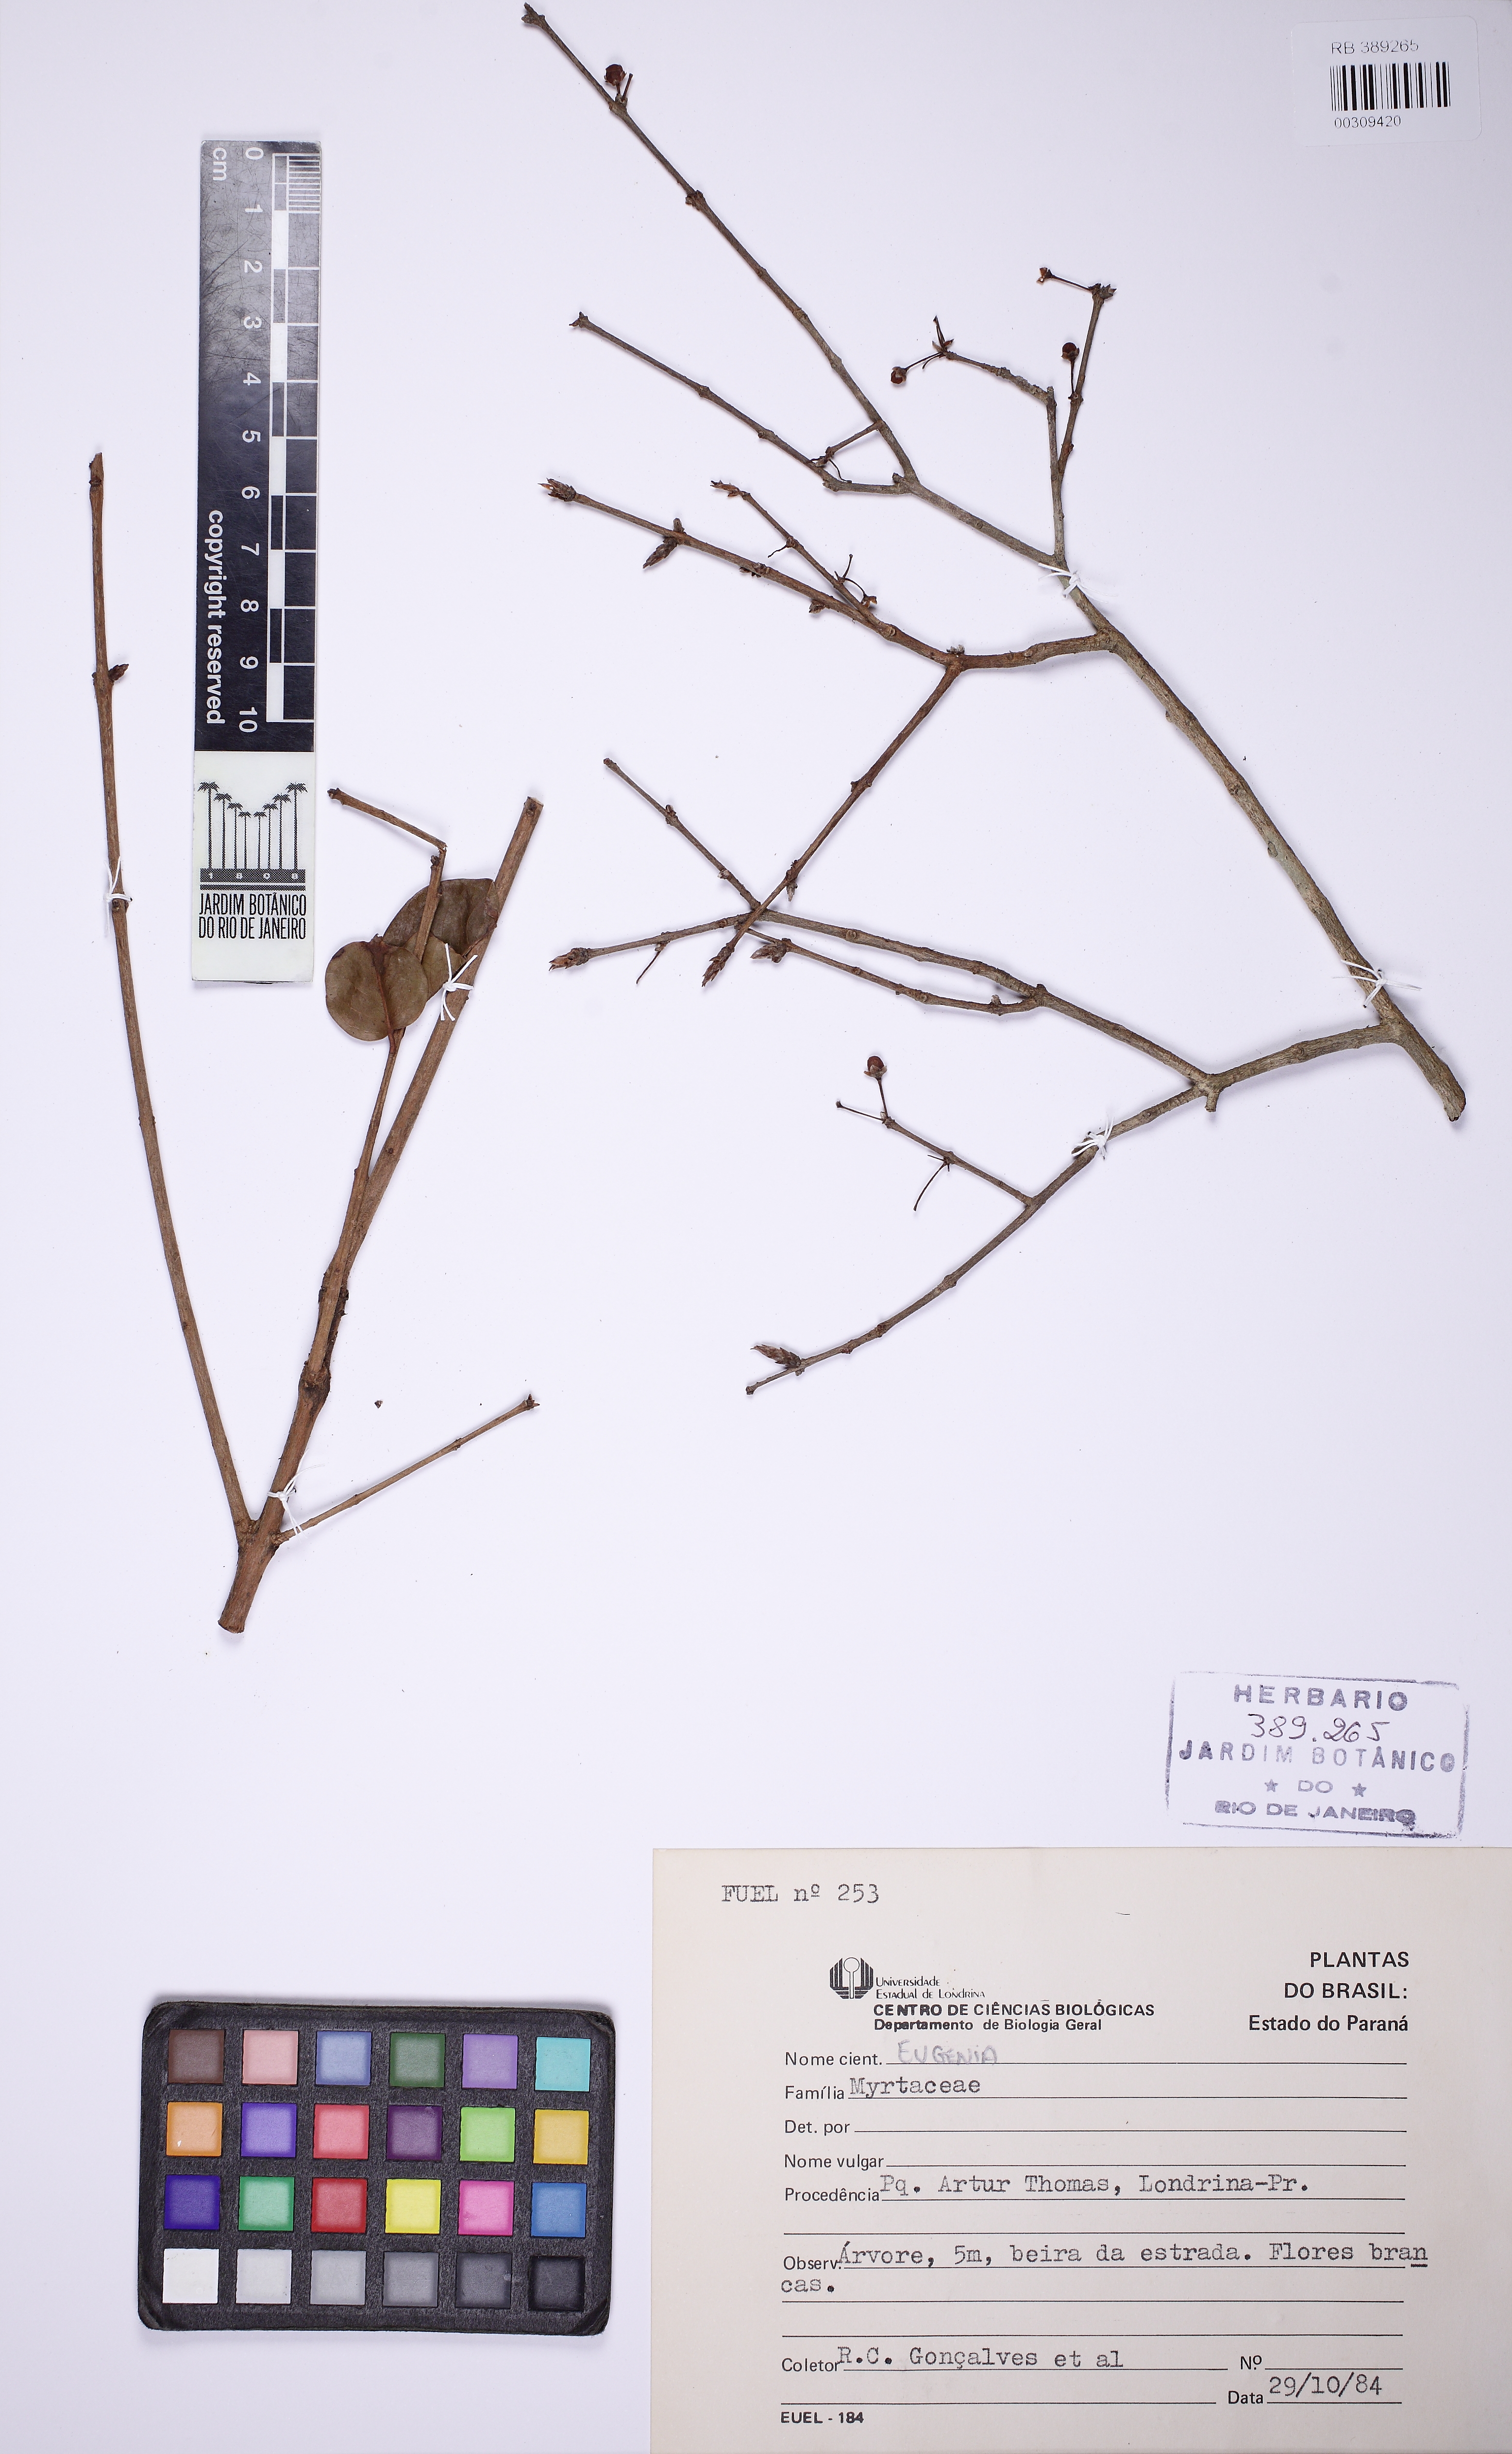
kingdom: Plantae
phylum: Tracheophyta
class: Magnoliopsida
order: Myrtales
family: Myrtaceae
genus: Eugenia
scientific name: Eugenia
